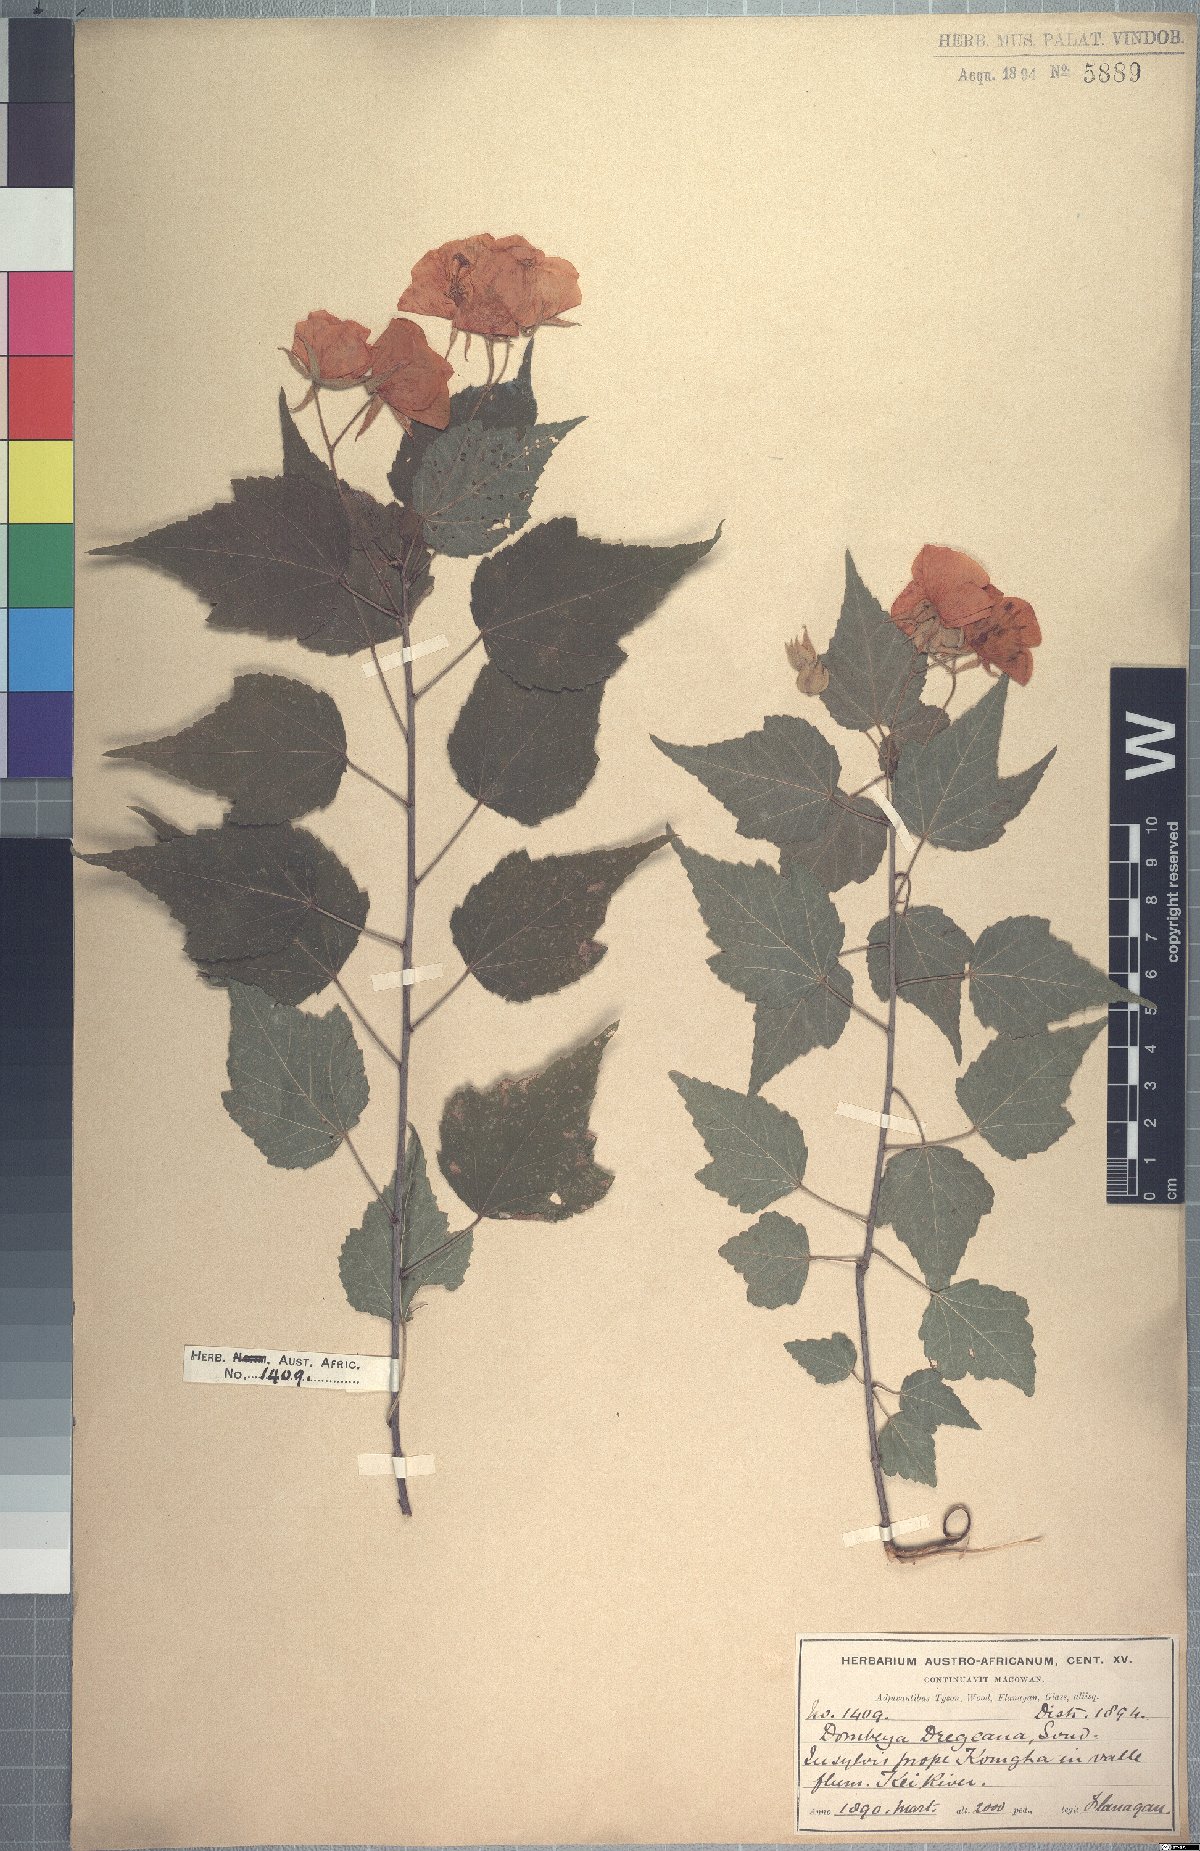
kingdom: Plantae
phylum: Tracheophyta
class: Magnoliopsida
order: Malvales
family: Malvaceae
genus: Dombeya
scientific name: Dombeya tiliacea
